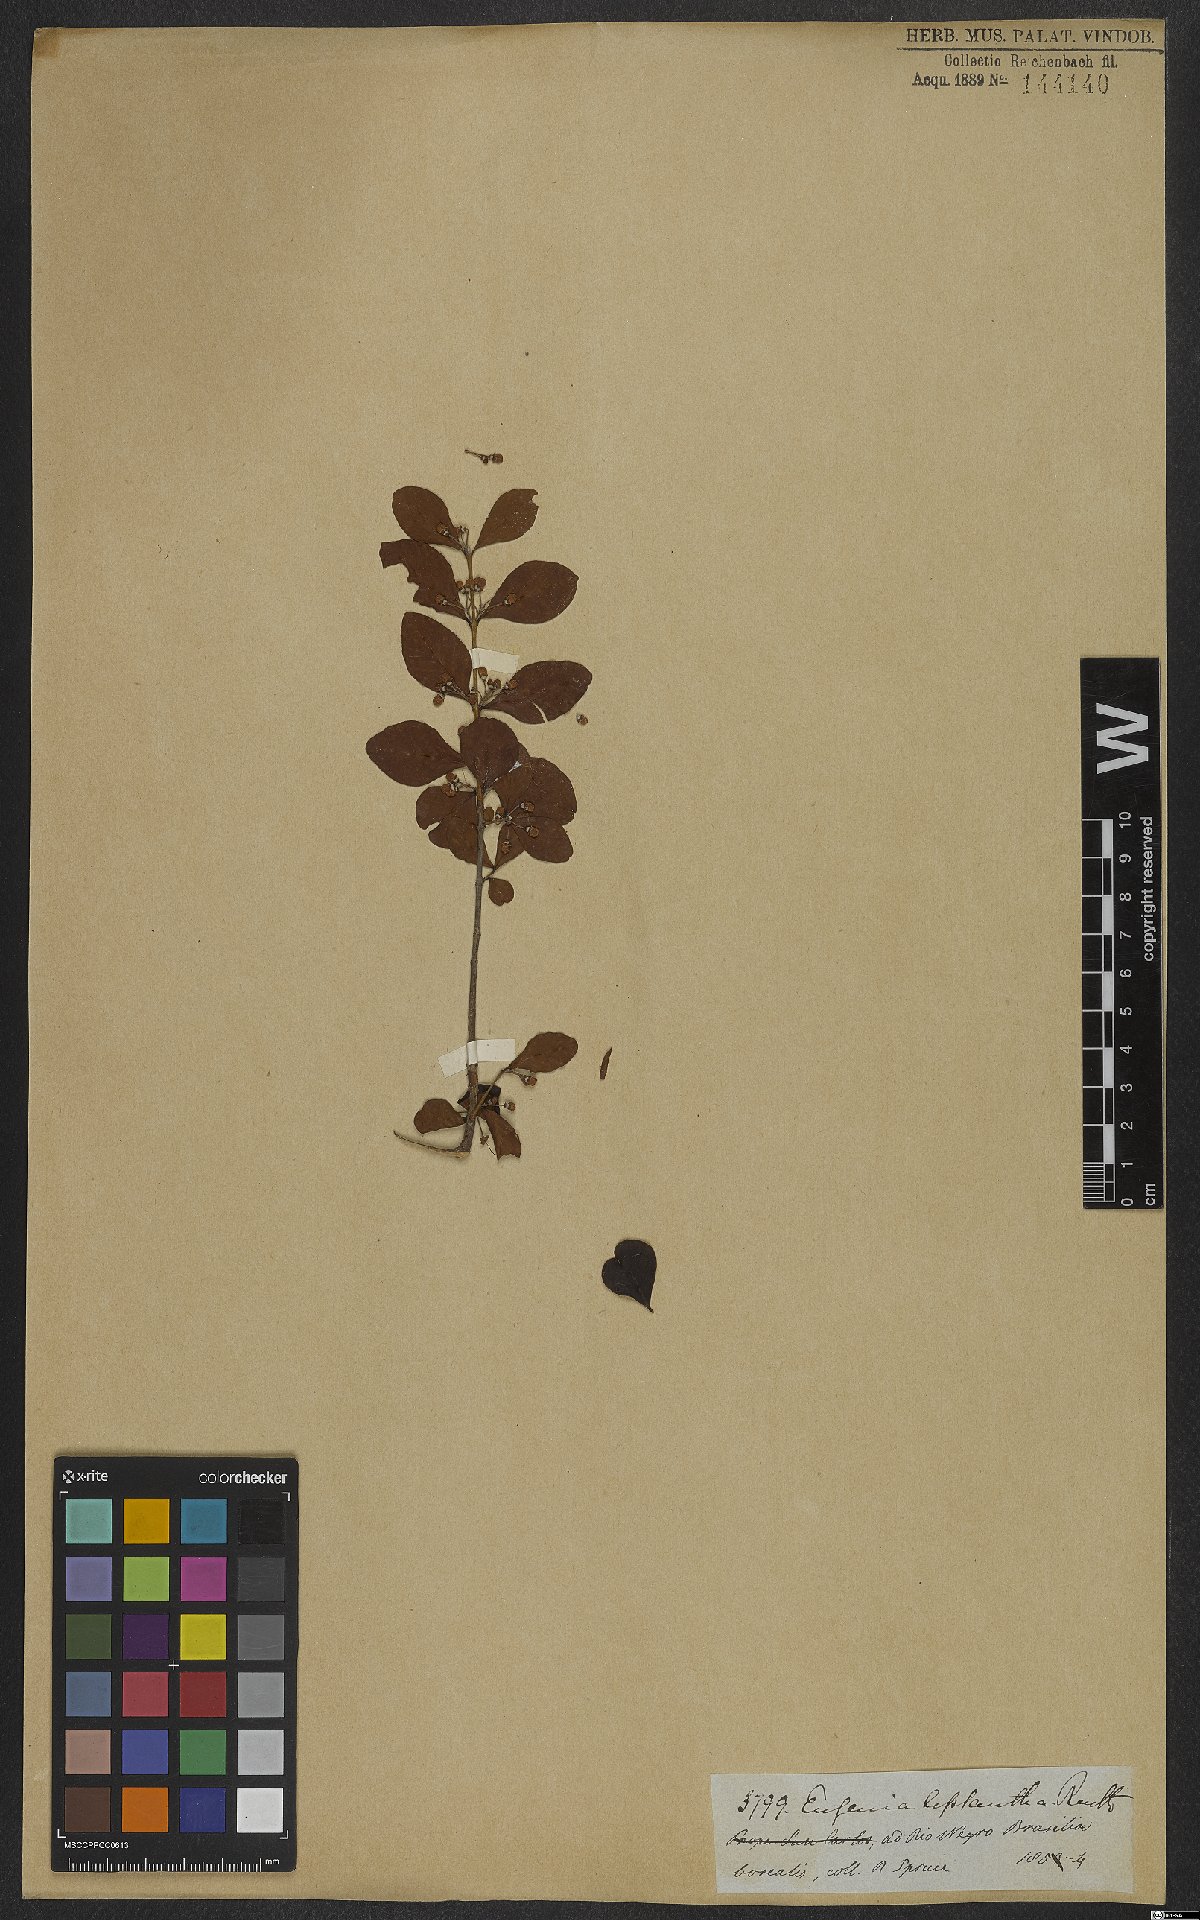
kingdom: Plantae
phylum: Tracheophyta
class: Magnoliopsida
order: Myrtales
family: Myrtaceae
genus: Eugenia
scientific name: Eugenia inundata
